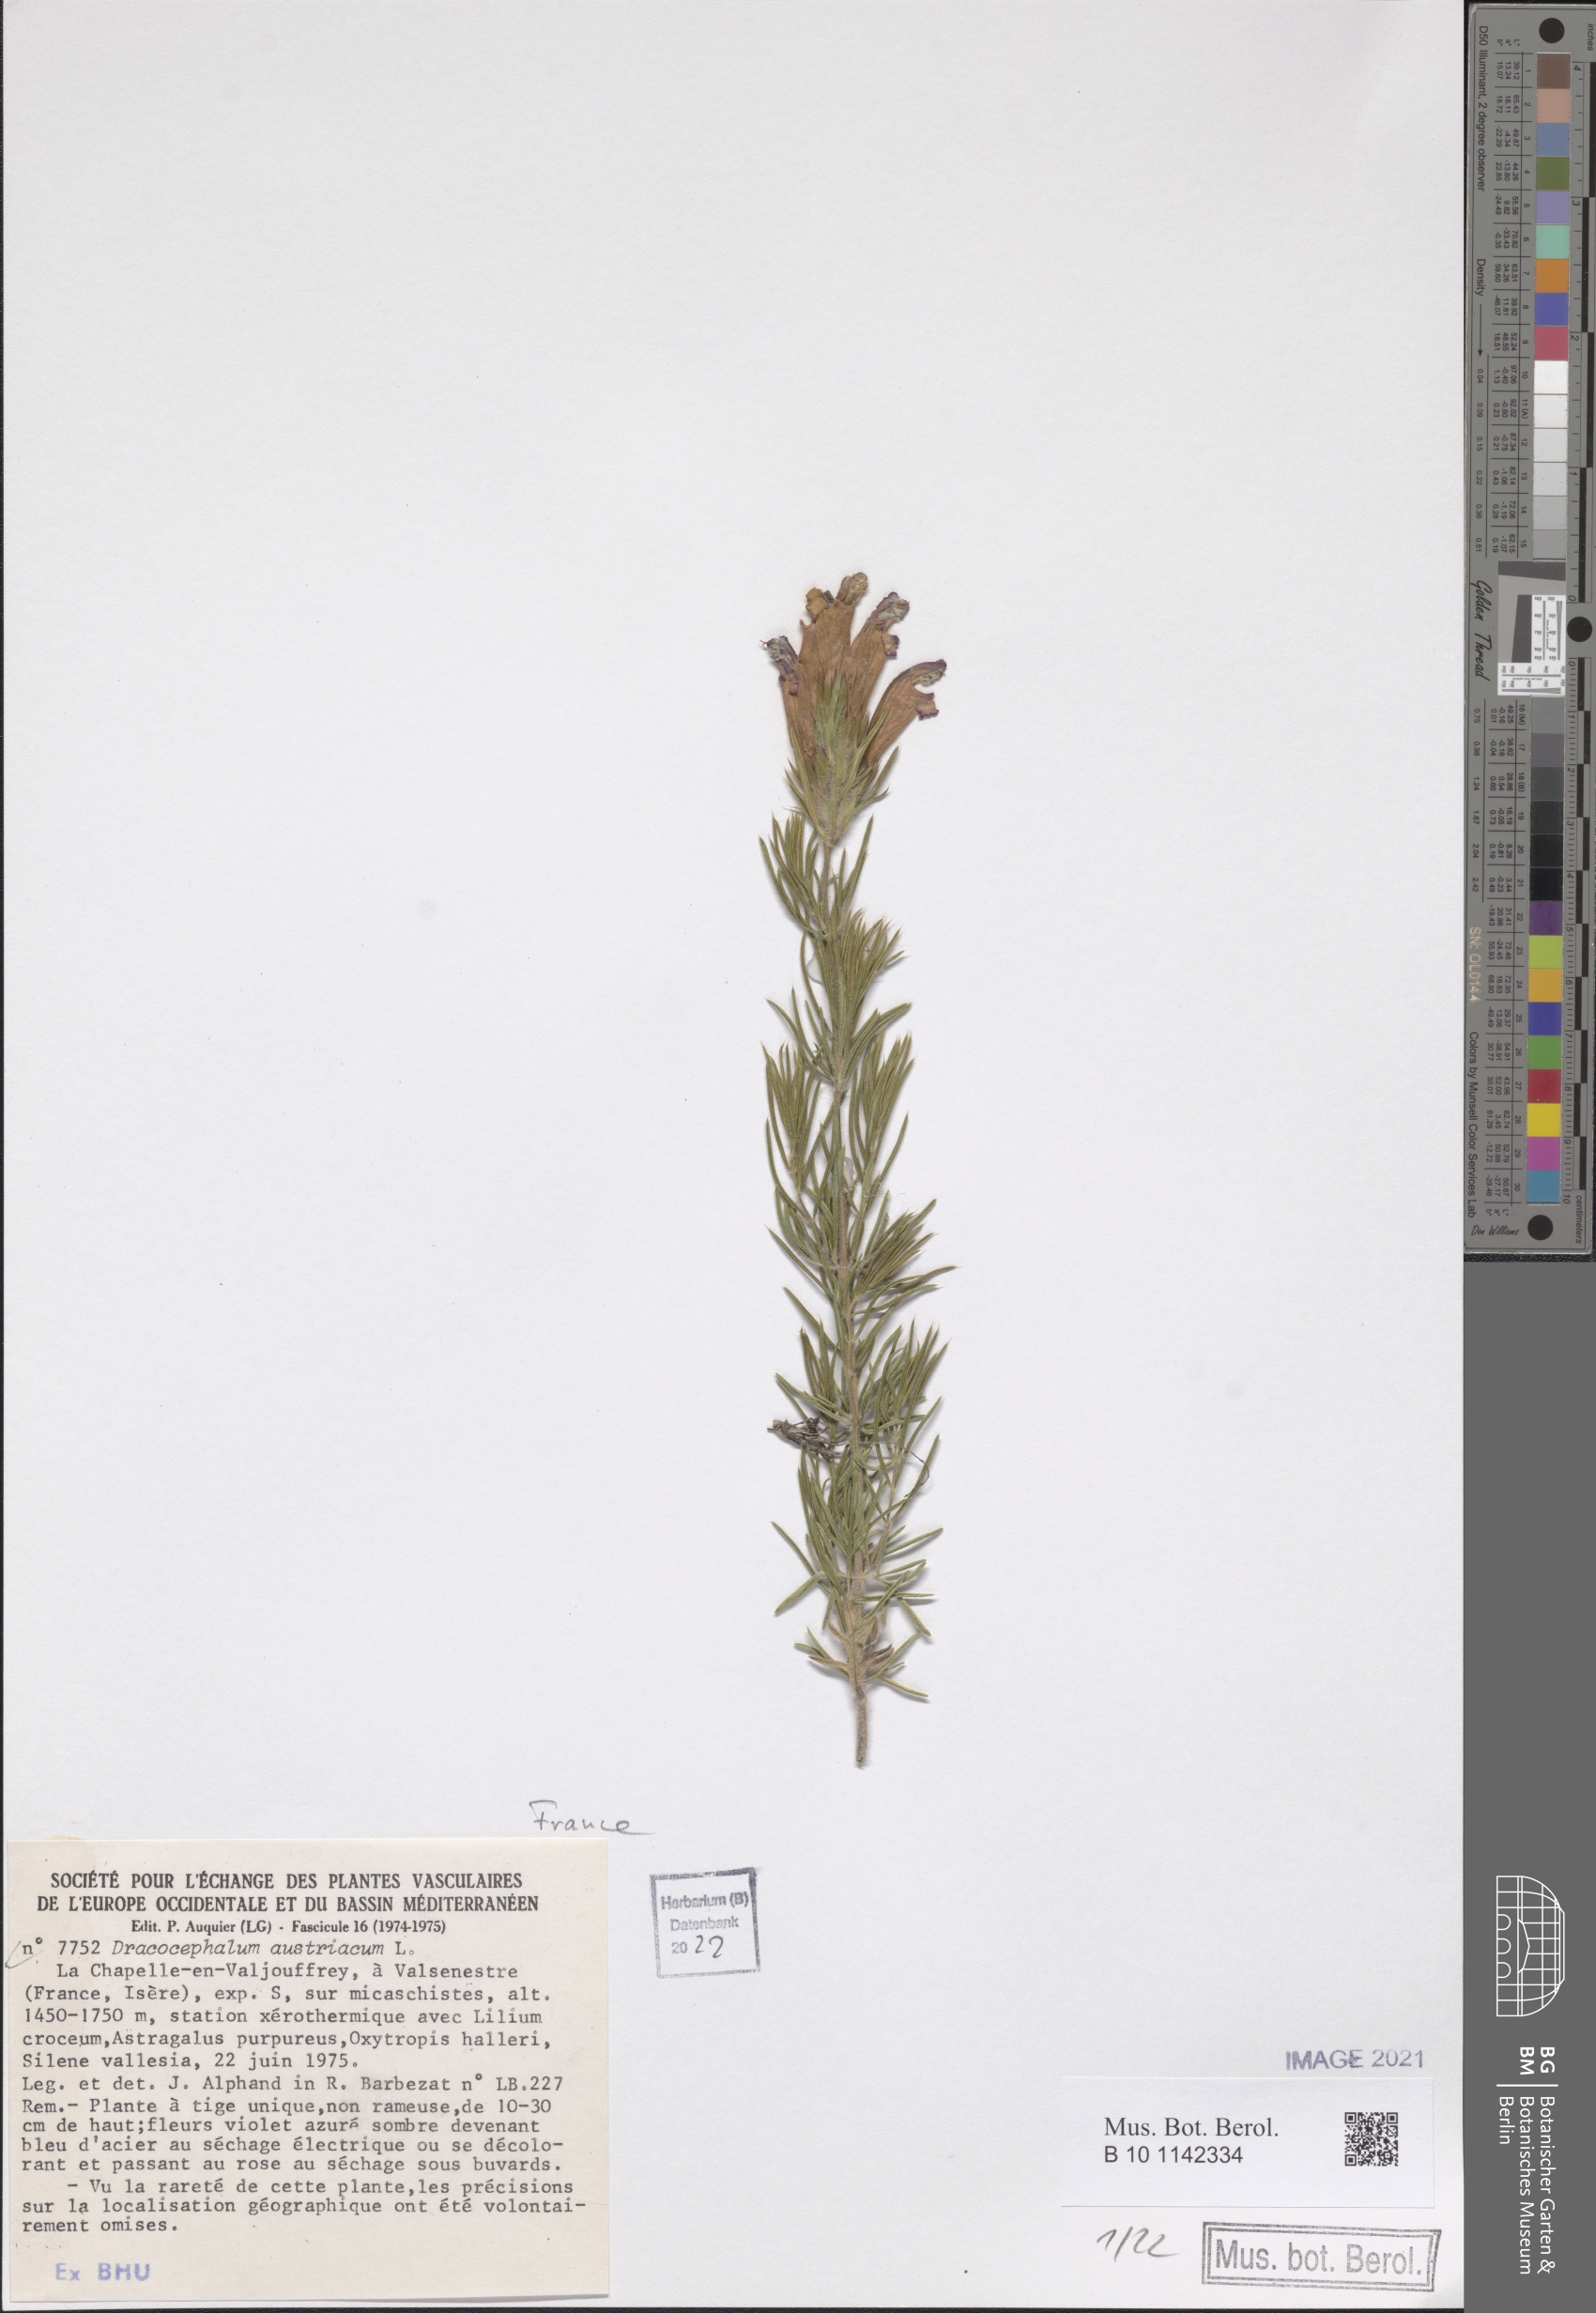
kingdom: Plantae
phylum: Tracheophyta
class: Magnoliopsida
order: Lamiales
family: Lamiaceae
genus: Dracocephalum
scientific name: Dracocephalum austriacum
